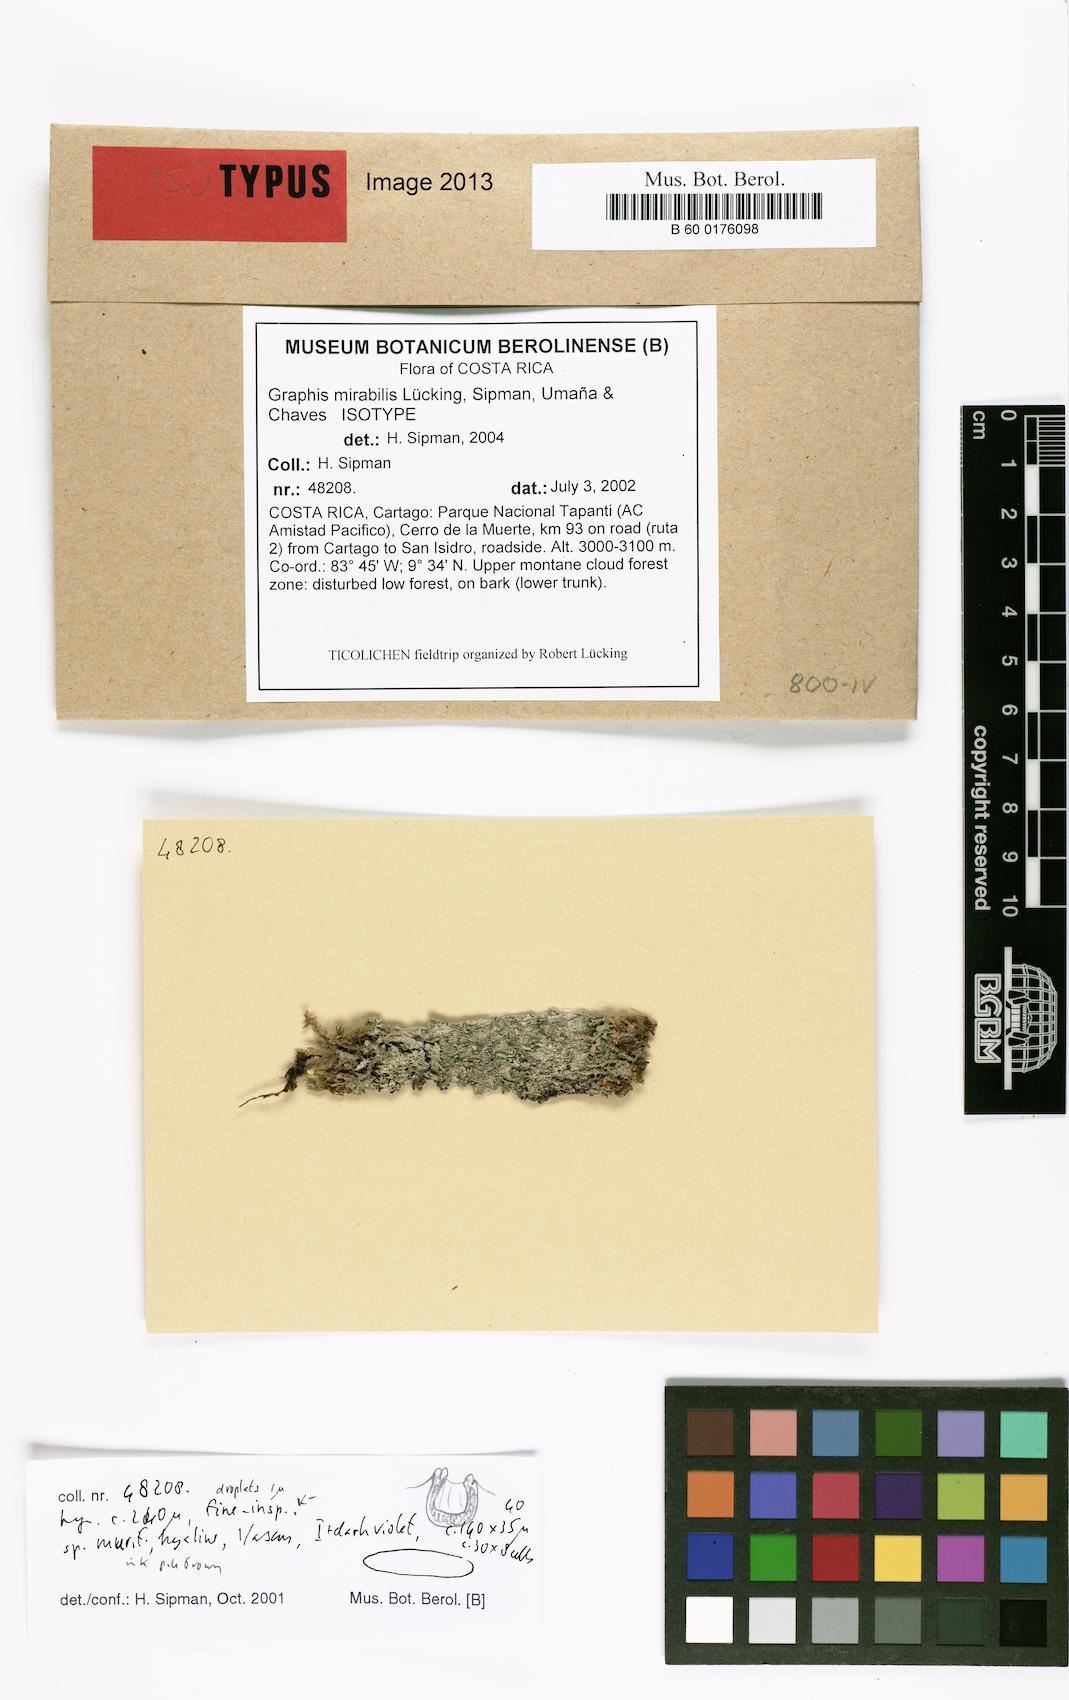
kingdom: Fungi
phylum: Ascomycota
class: Lecanoromycetes
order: Ostropales
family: Graphidaceae
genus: Allographa
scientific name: Allographa mirabilis
